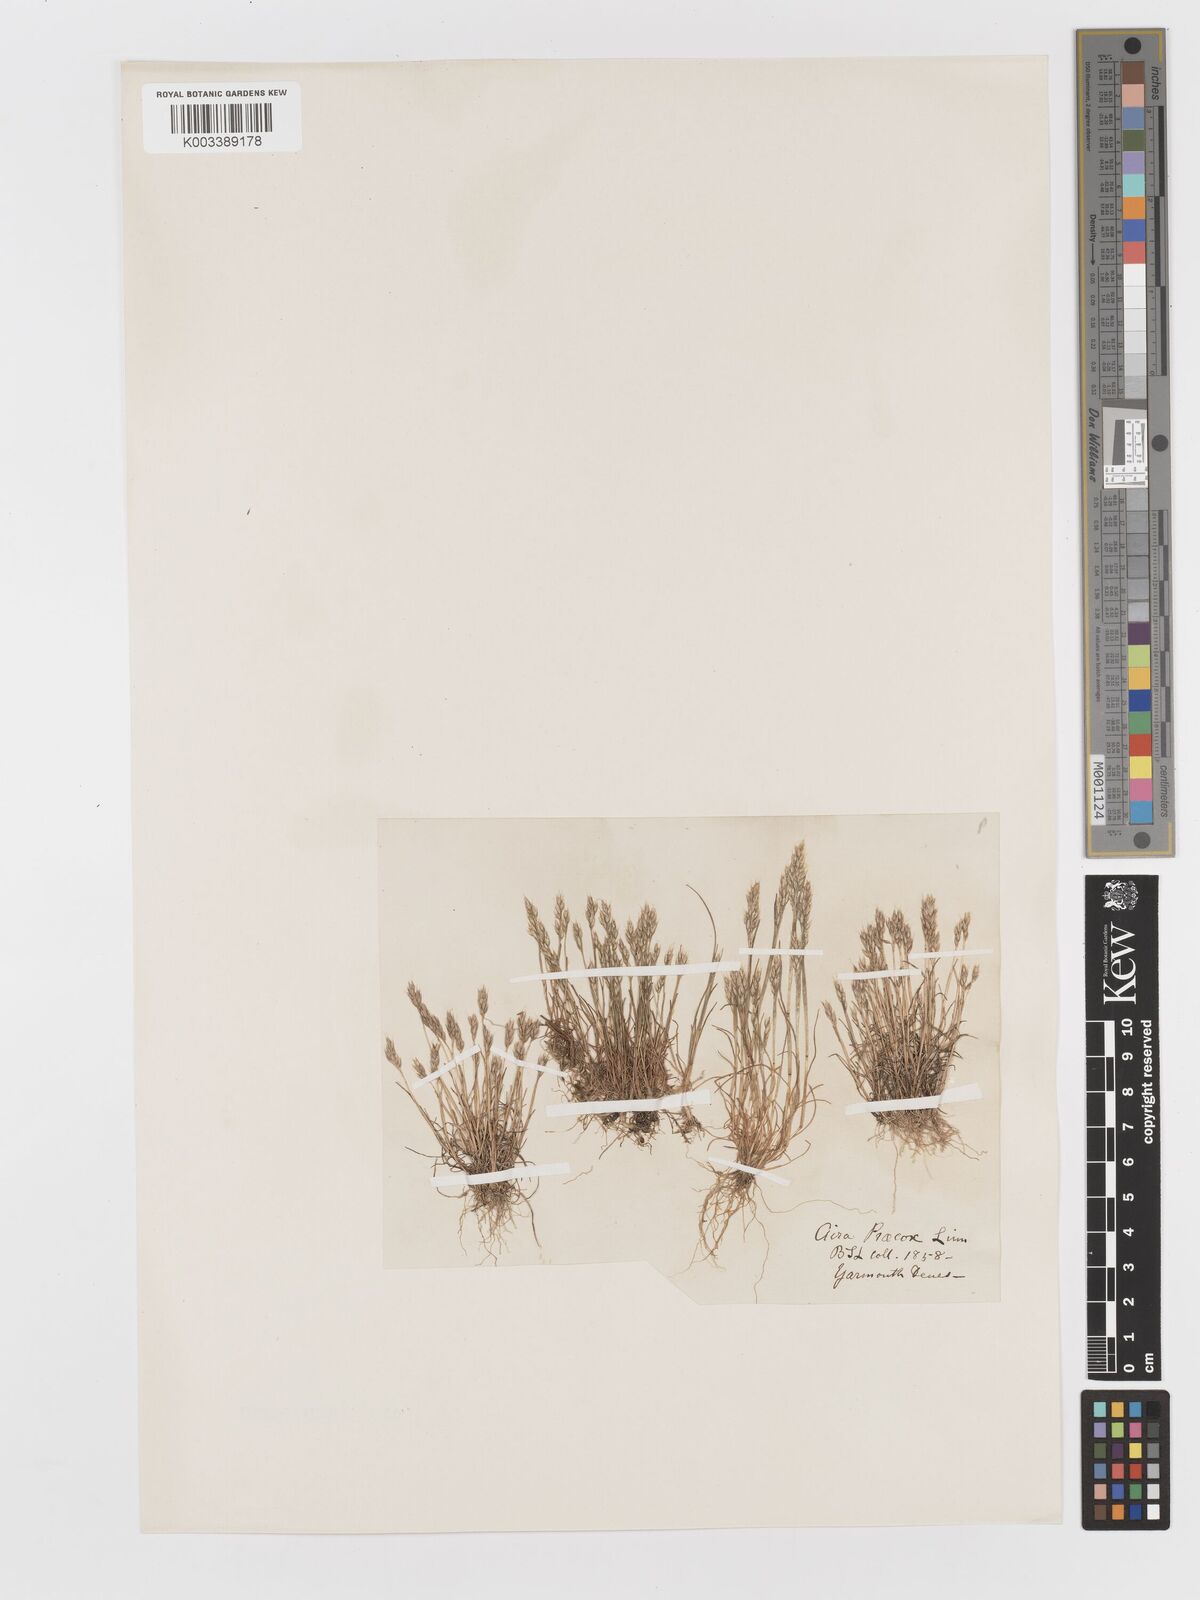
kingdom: Plantae
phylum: Tracheophyta
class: Liliopsida
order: Poales
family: Poaceae
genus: Aira
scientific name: Aira praecox
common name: Early hair-grass
